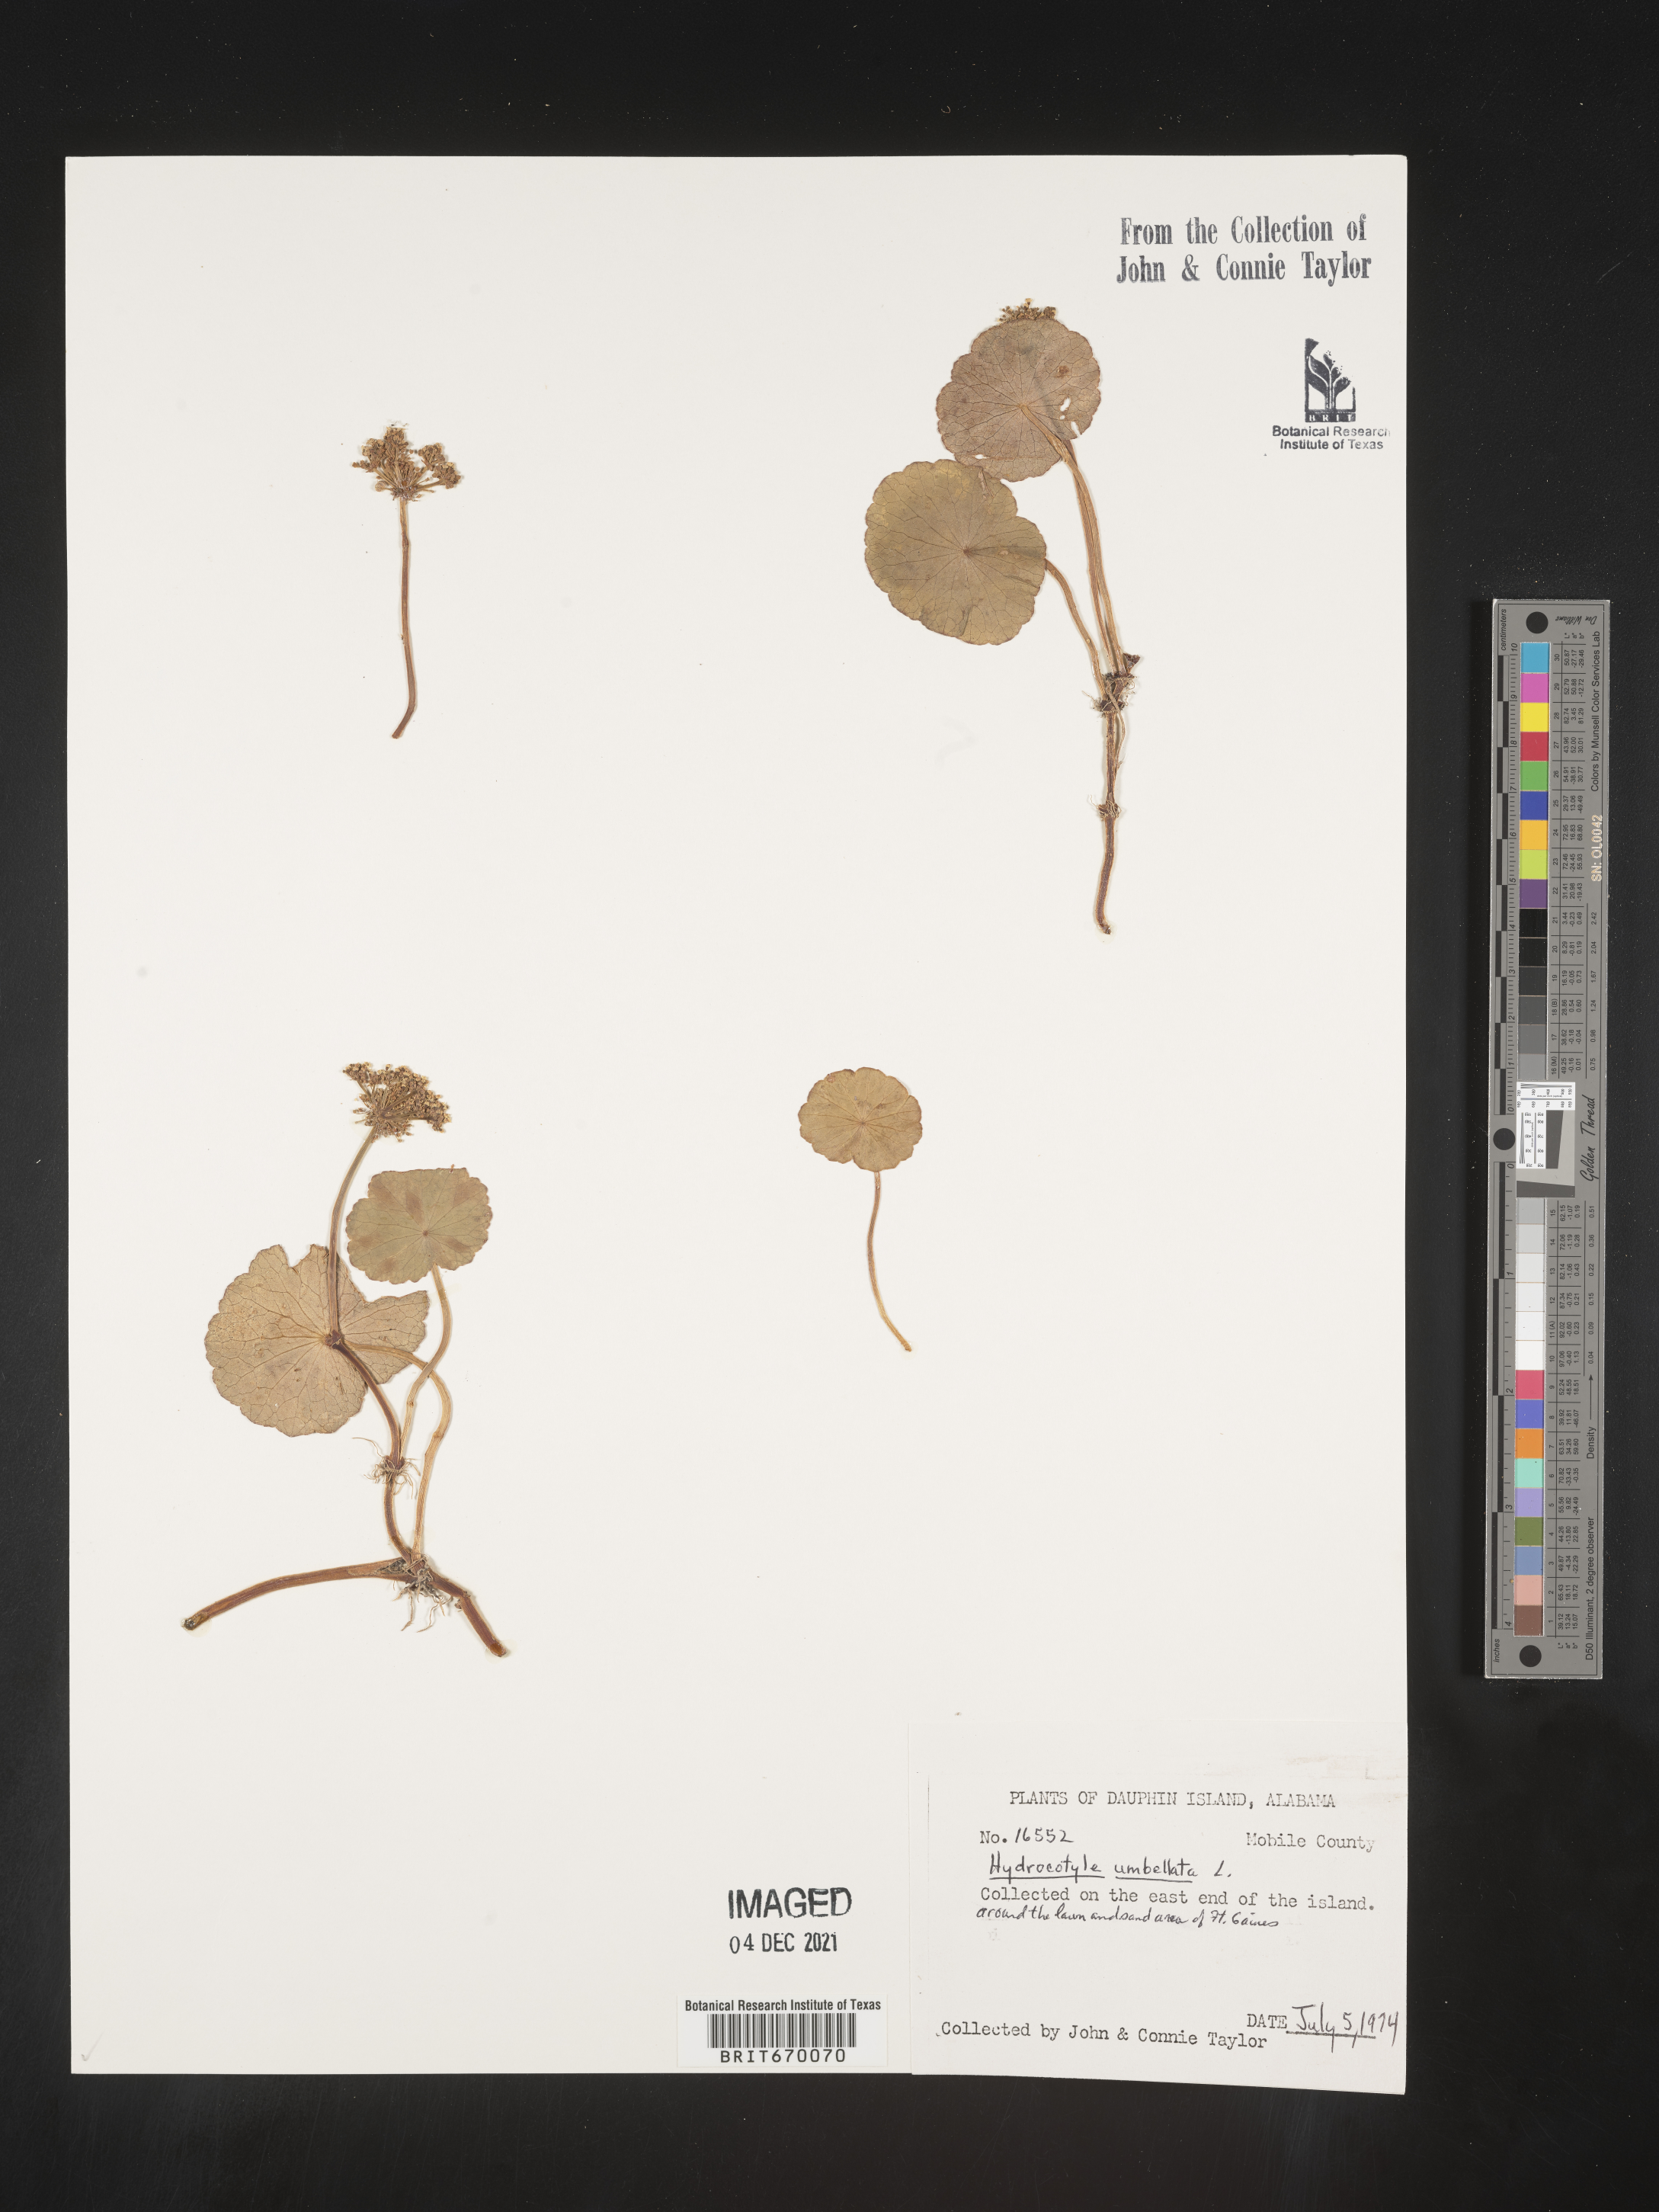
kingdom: Plantae
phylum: Tracheophyta
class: Magnoliopsida
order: Apiales
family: Araliaceae
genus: Hydrocotyle
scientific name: Hydrocotyle umbellata
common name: Water pennywort
